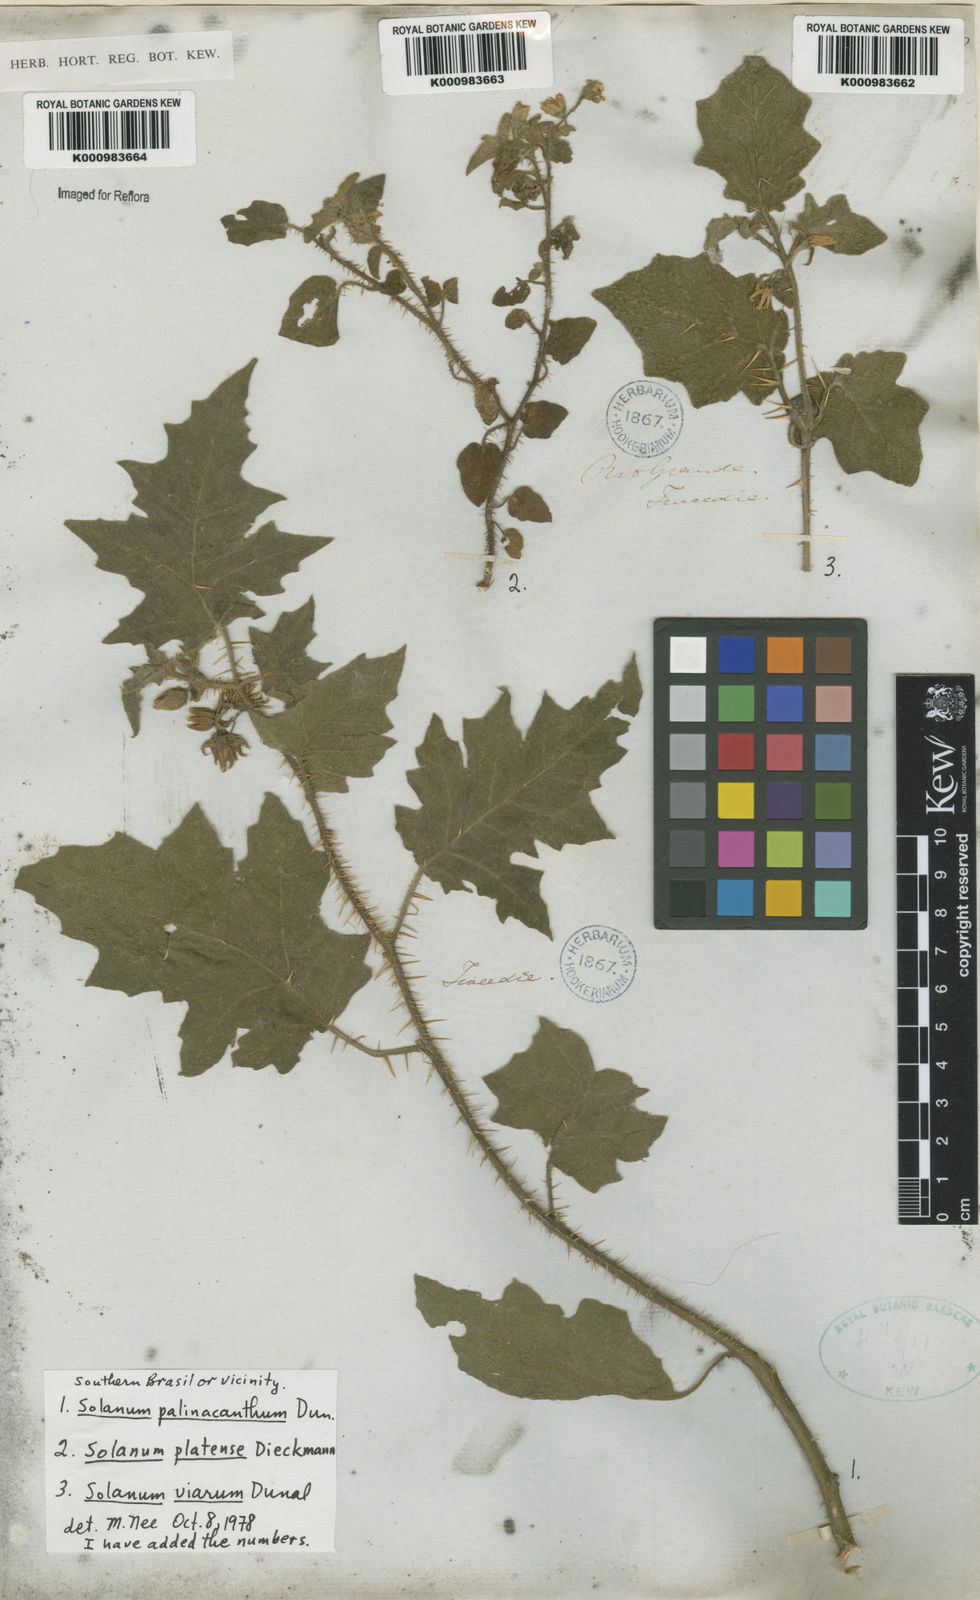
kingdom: Plantae
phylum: Tracheophyta
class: Magnoliopsida
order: Solanales
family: Solanaceae
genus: Solanum
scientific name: Solanum platense
